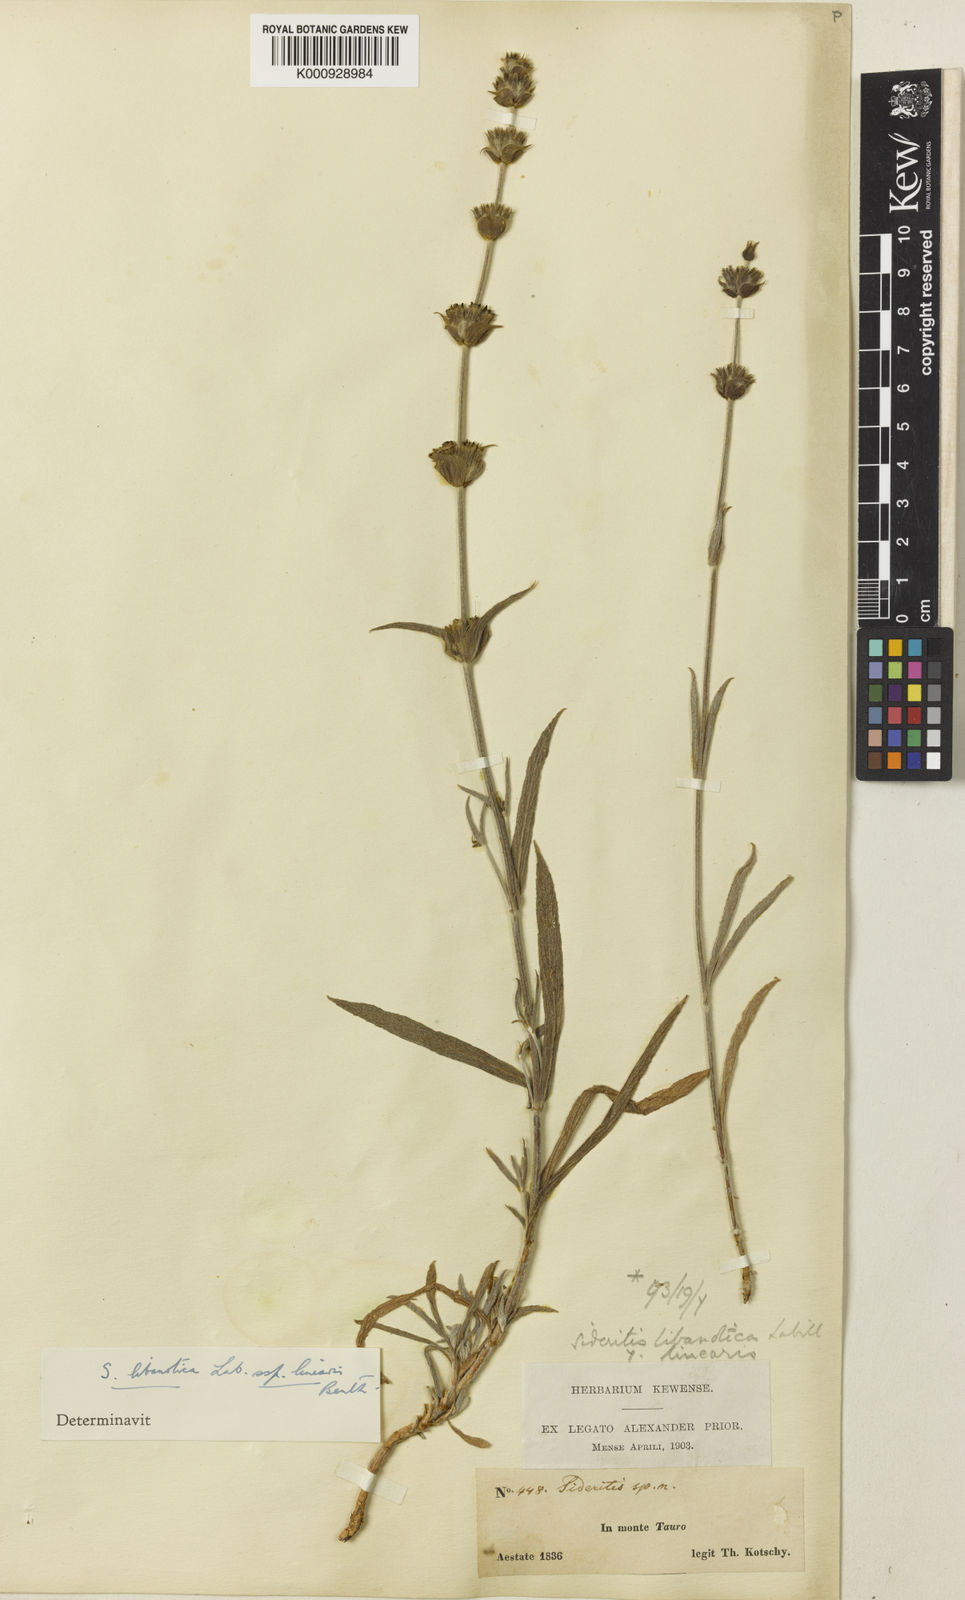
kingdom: Plantae
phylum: Tracheophyta
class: Magnoliopsida
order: Lamiales
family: Lamiaceae
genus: Sideritis
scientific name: Sideritis libanotica
